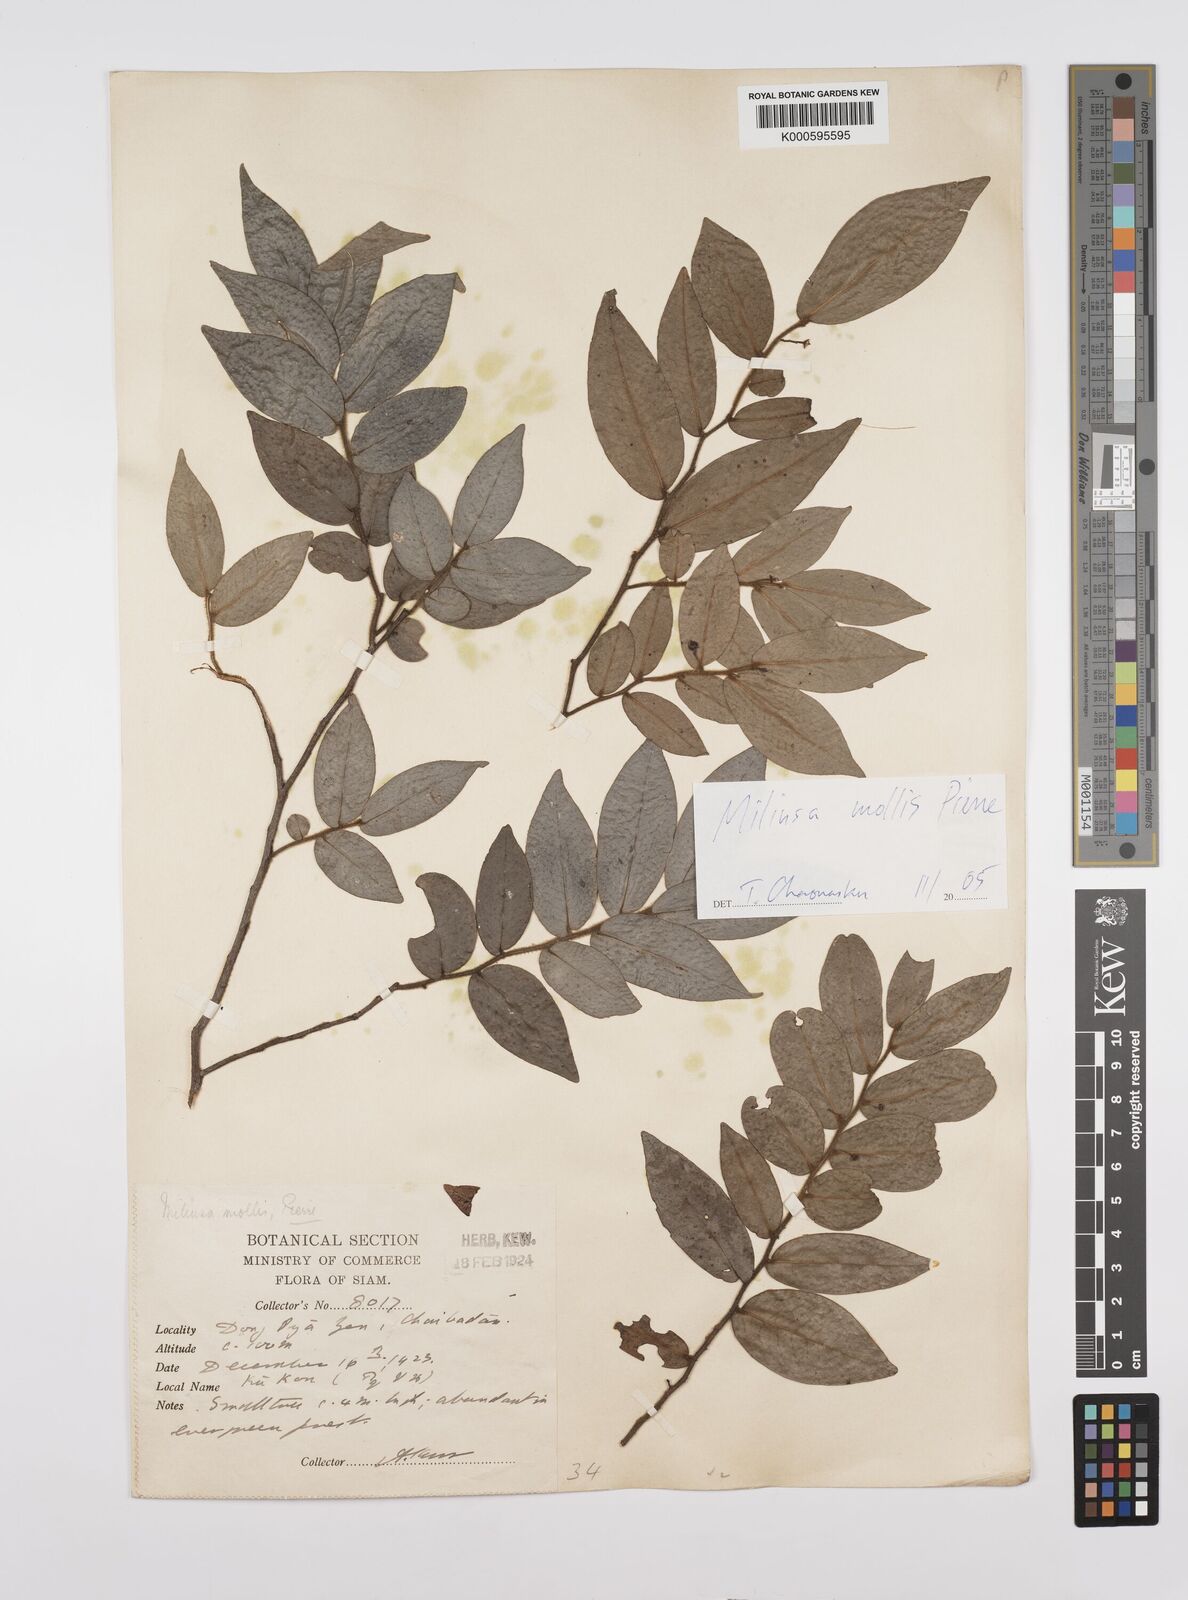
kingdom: Plantae
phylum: Tracheophyta
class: Magnoliopsida
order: Magnoliales
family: Annonaceae
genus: Miliusa
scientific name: Miliusa mollis
